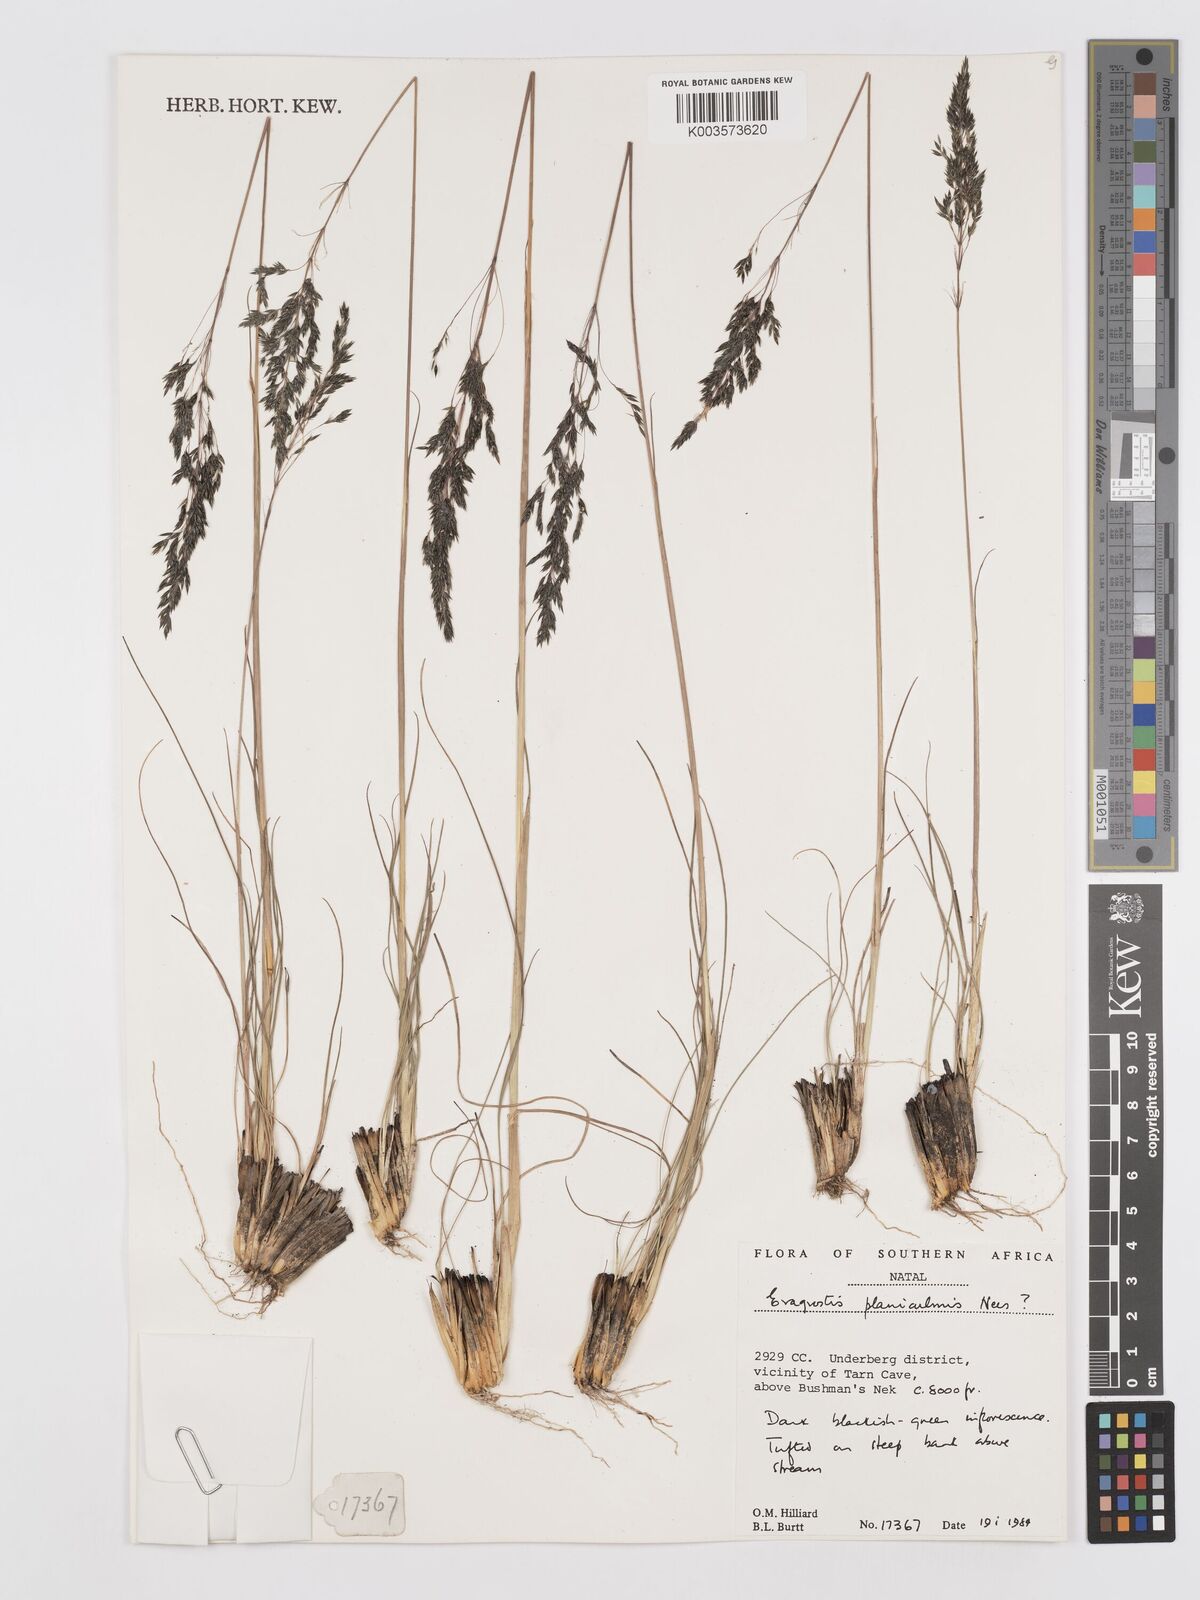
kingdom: Plantae
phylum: Tracheophyta
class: Liliopsida
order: Poales
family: Poaceae
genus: Eragrostis
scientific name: Eragrostis planiculmis
